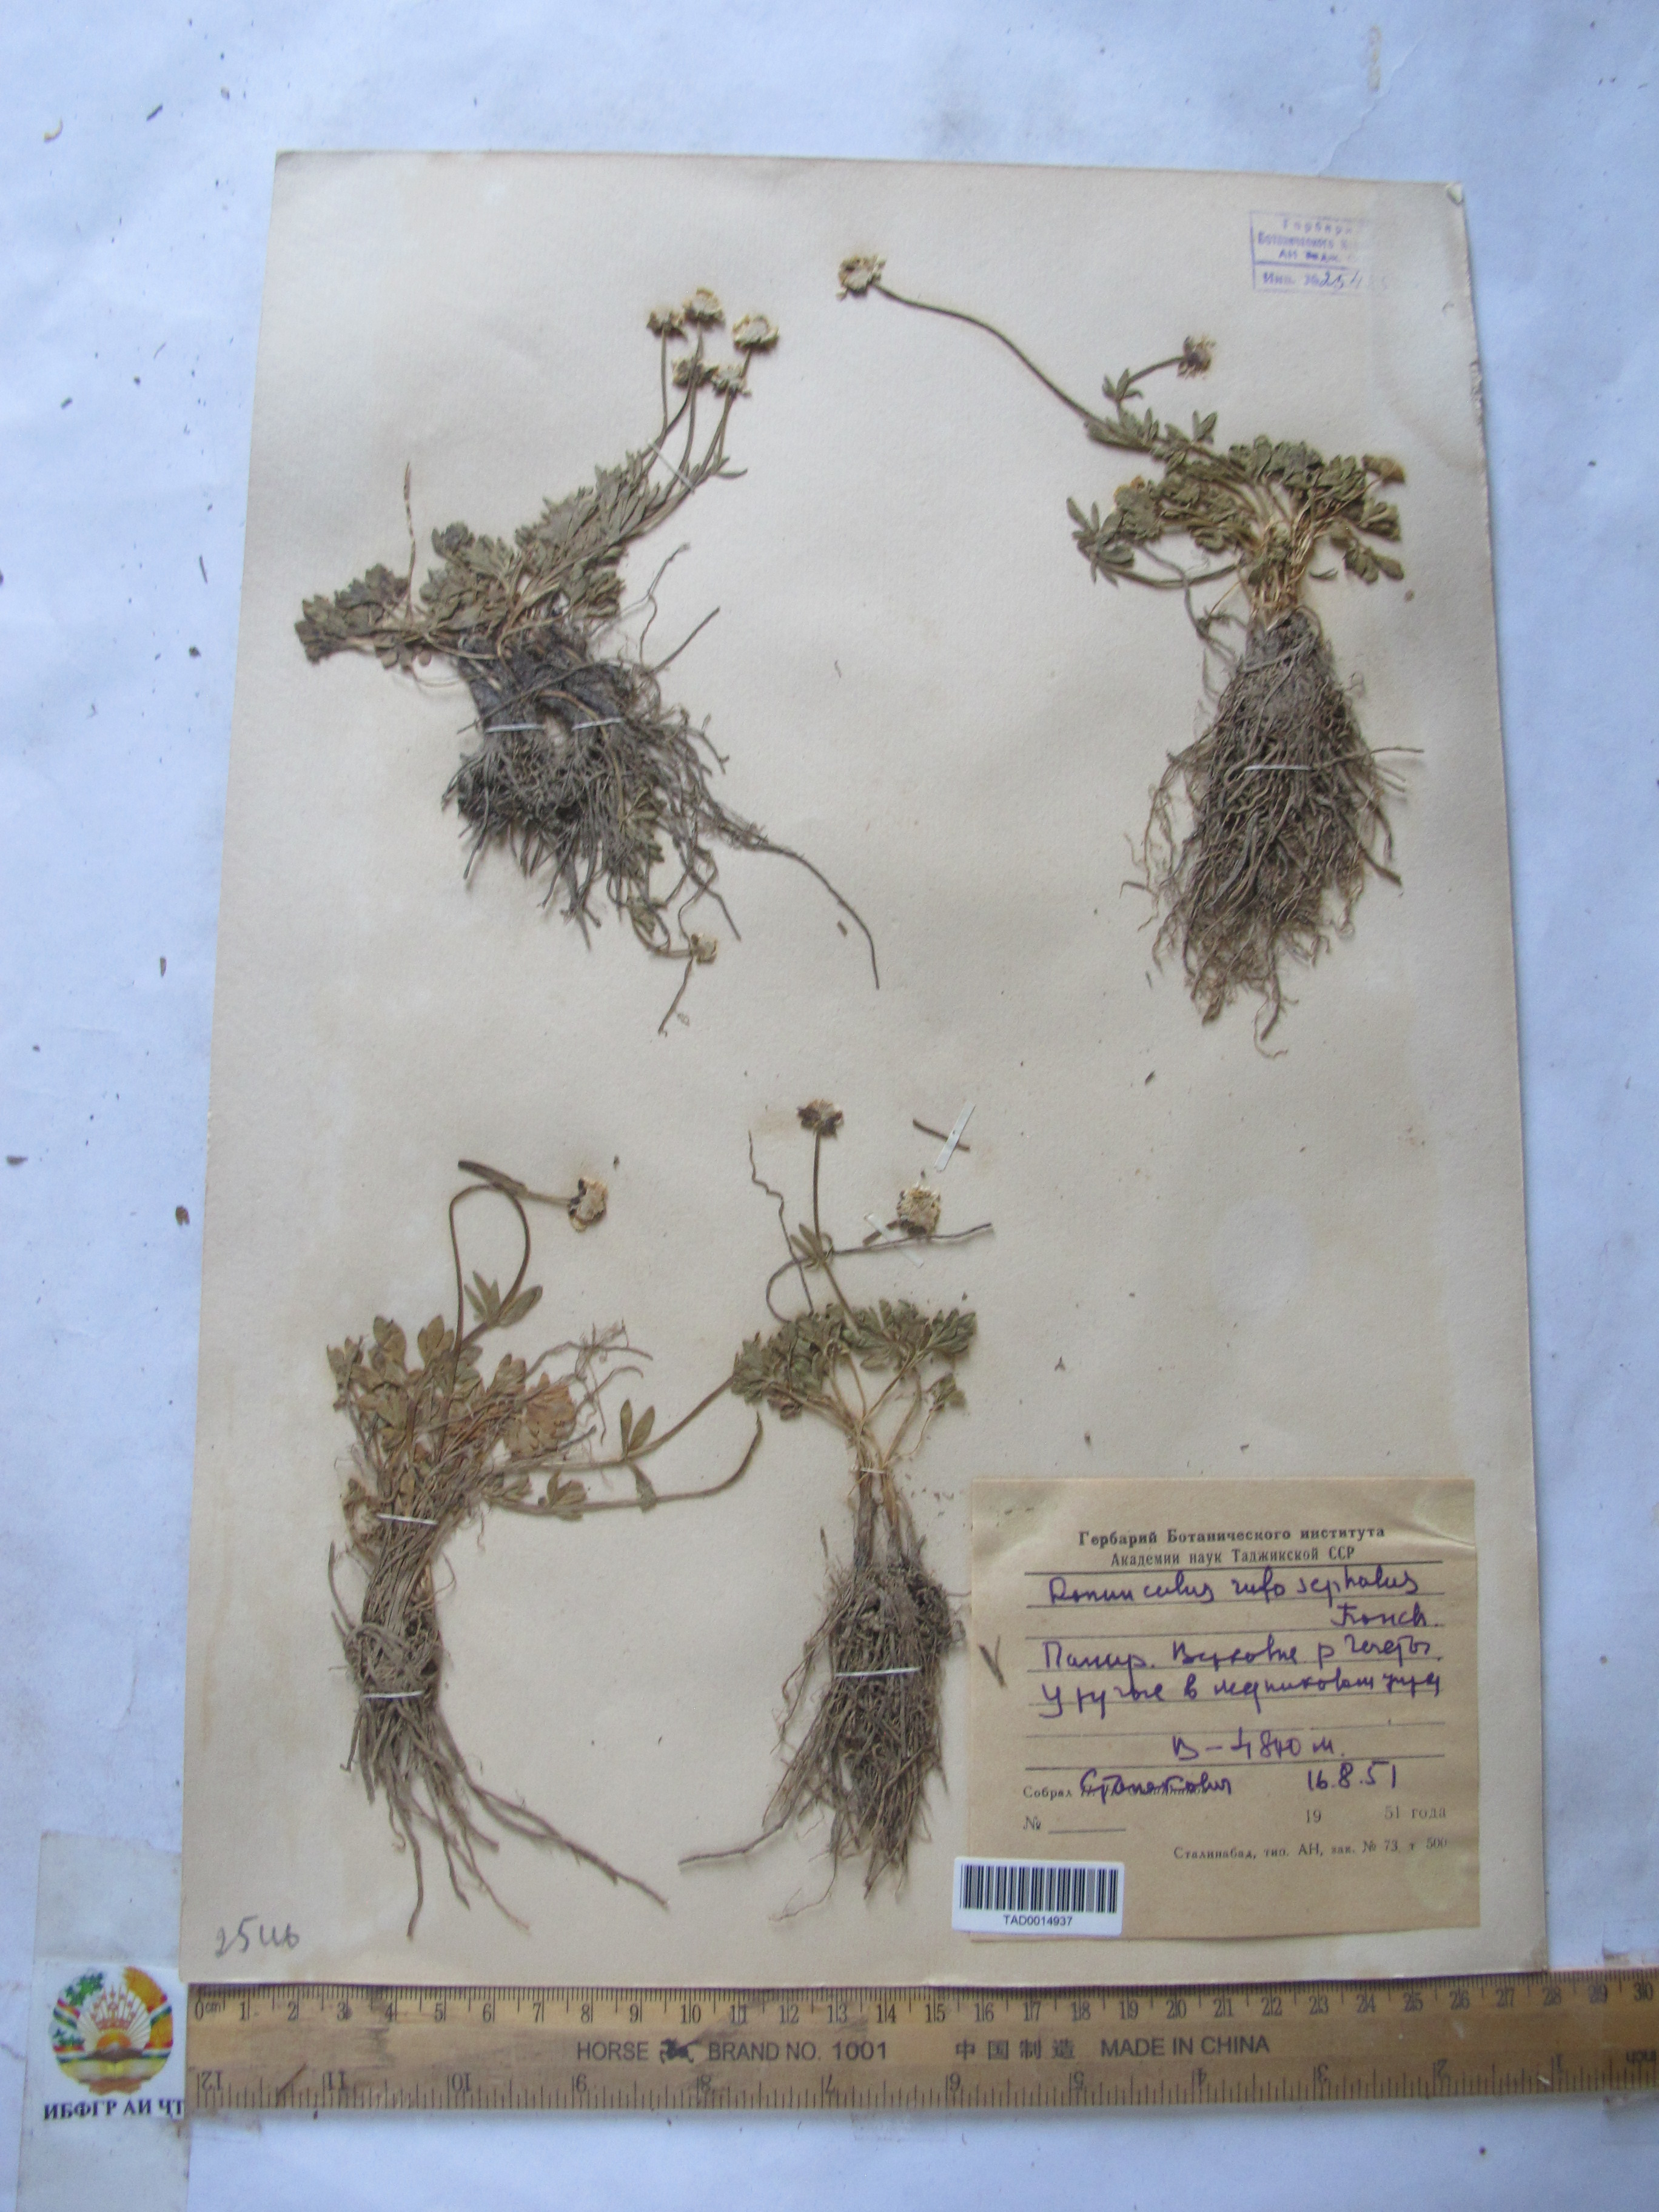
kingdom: Plantae
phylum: Tracheophyta
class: Magnoliopsida
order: Ranunculales
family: Ranunculaceae
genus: Ranunculus
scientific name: Ranunculus rufosepalus
